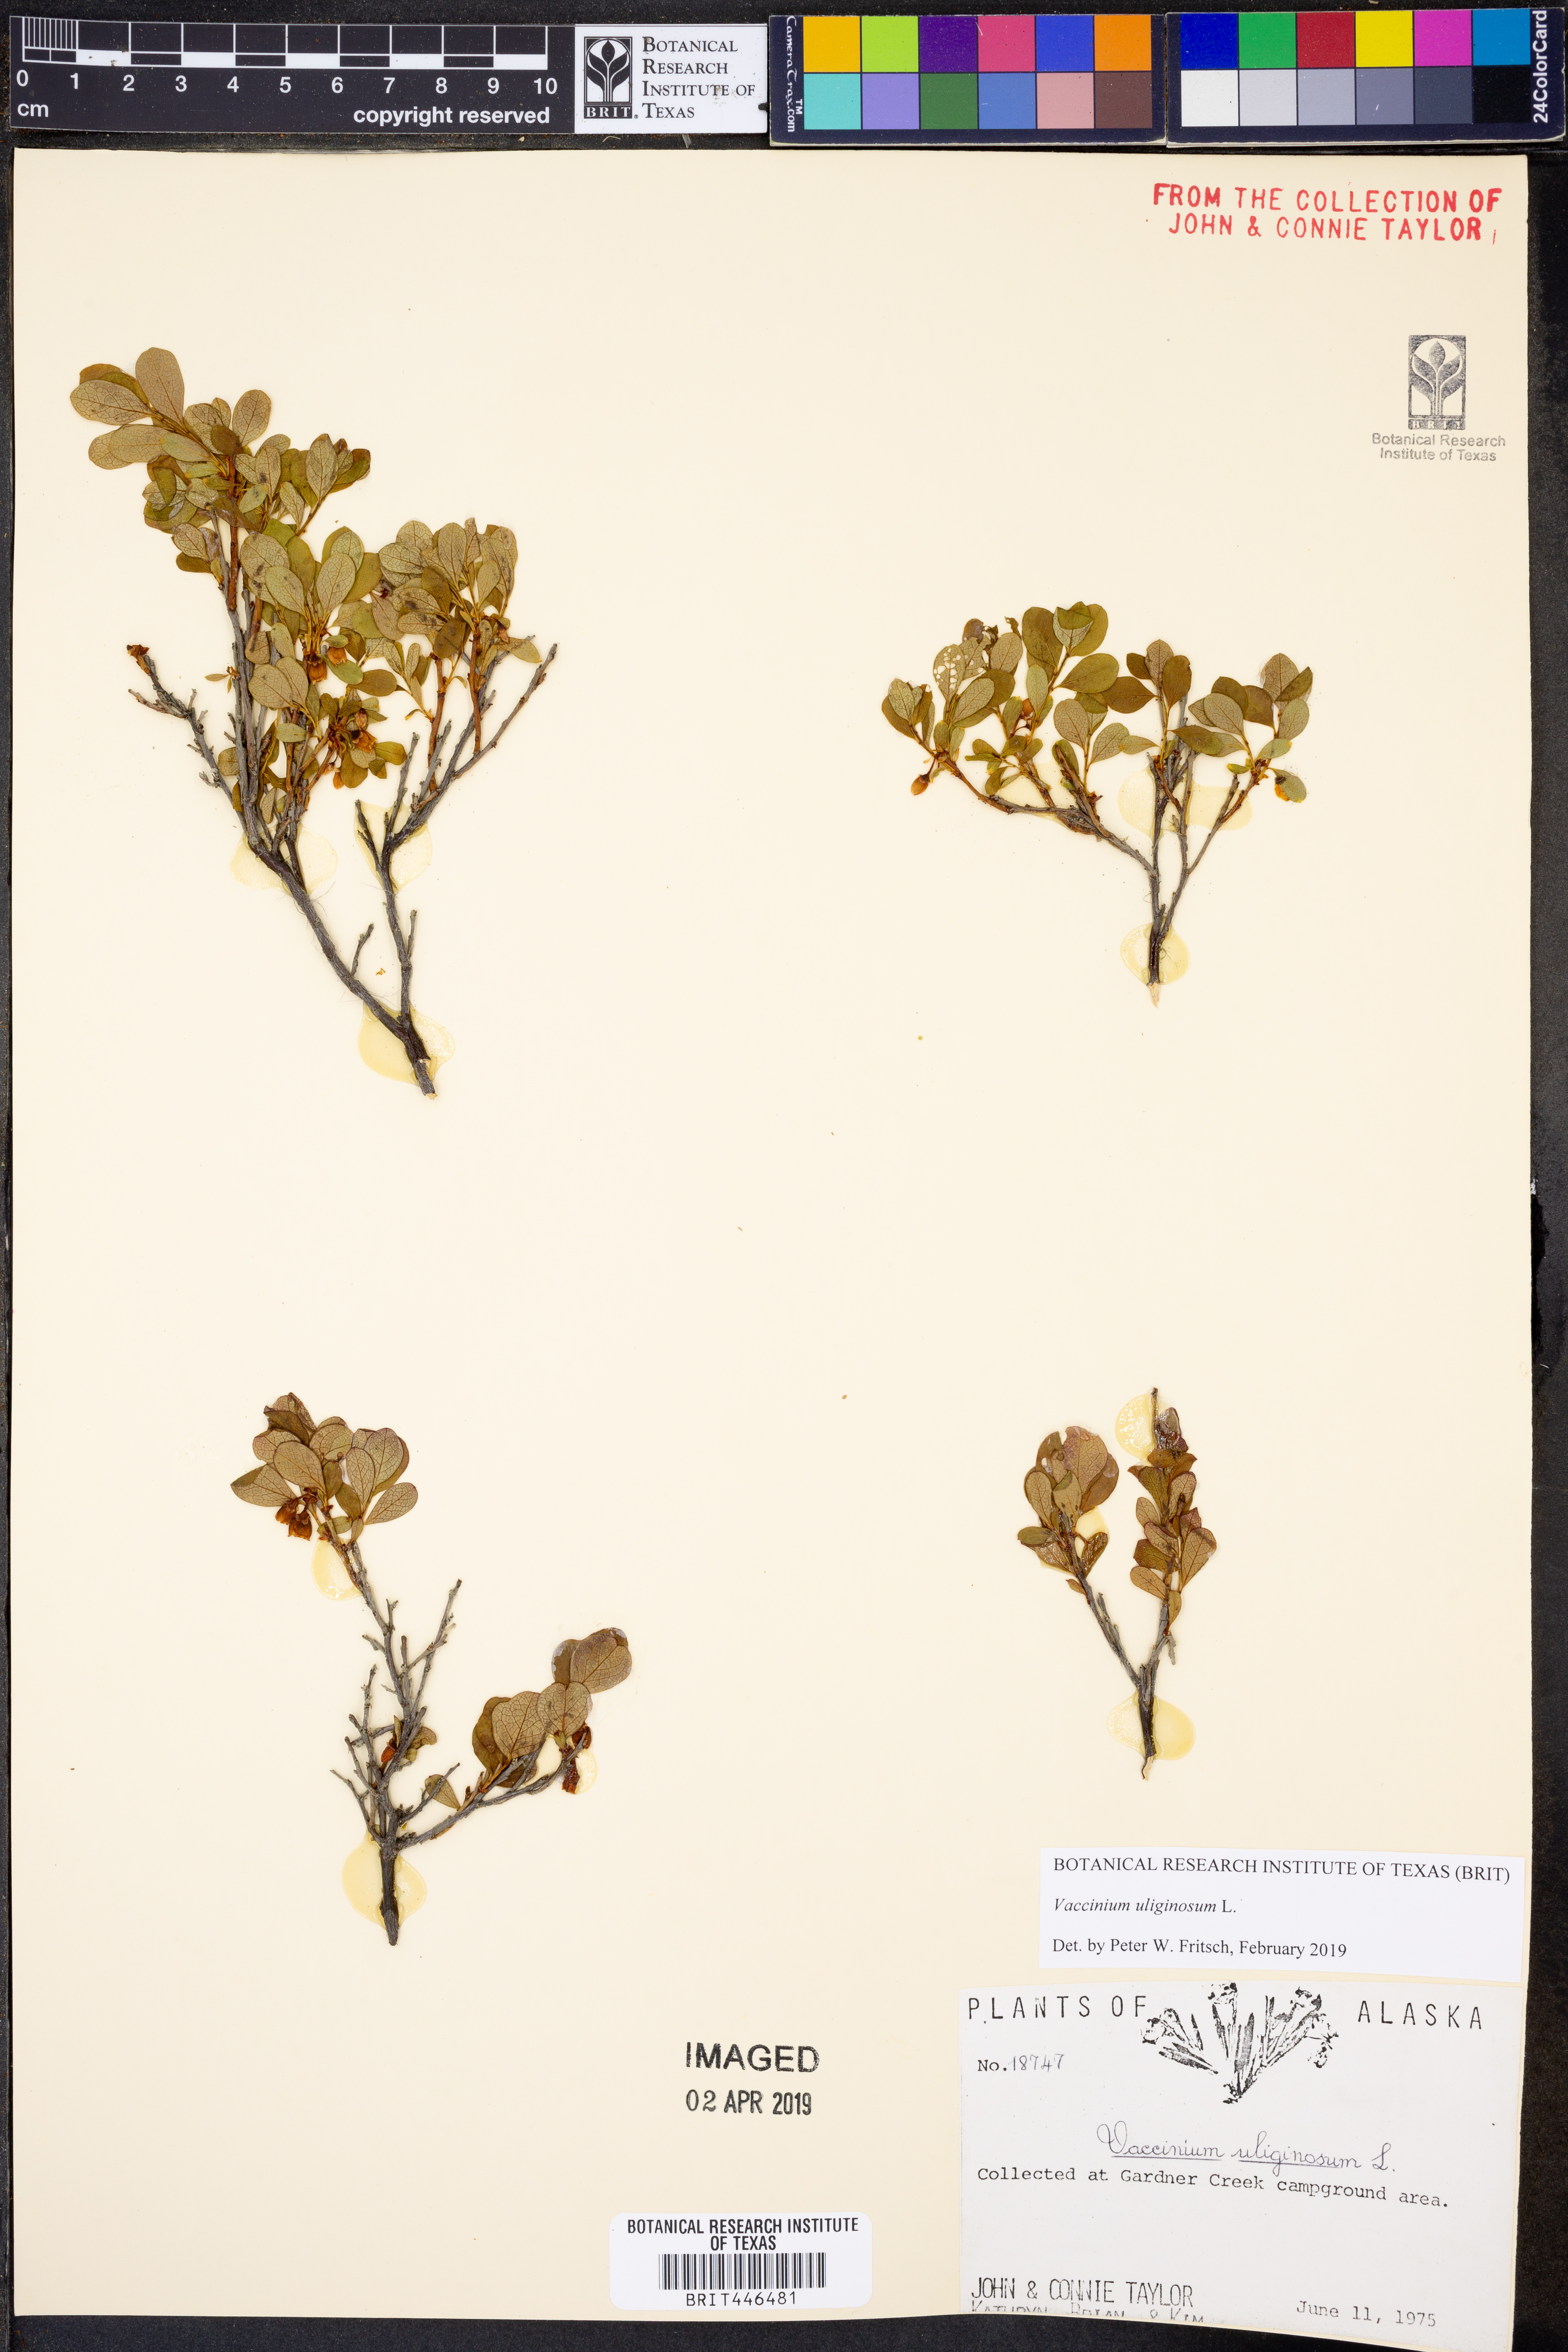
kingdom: Plantae
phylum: Tracheophyta
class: Magnoliopsida
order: Ericales
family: Ericaceae
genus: Vaccinium
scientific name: Vaccinium uliginosum
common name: Bog bilberry
